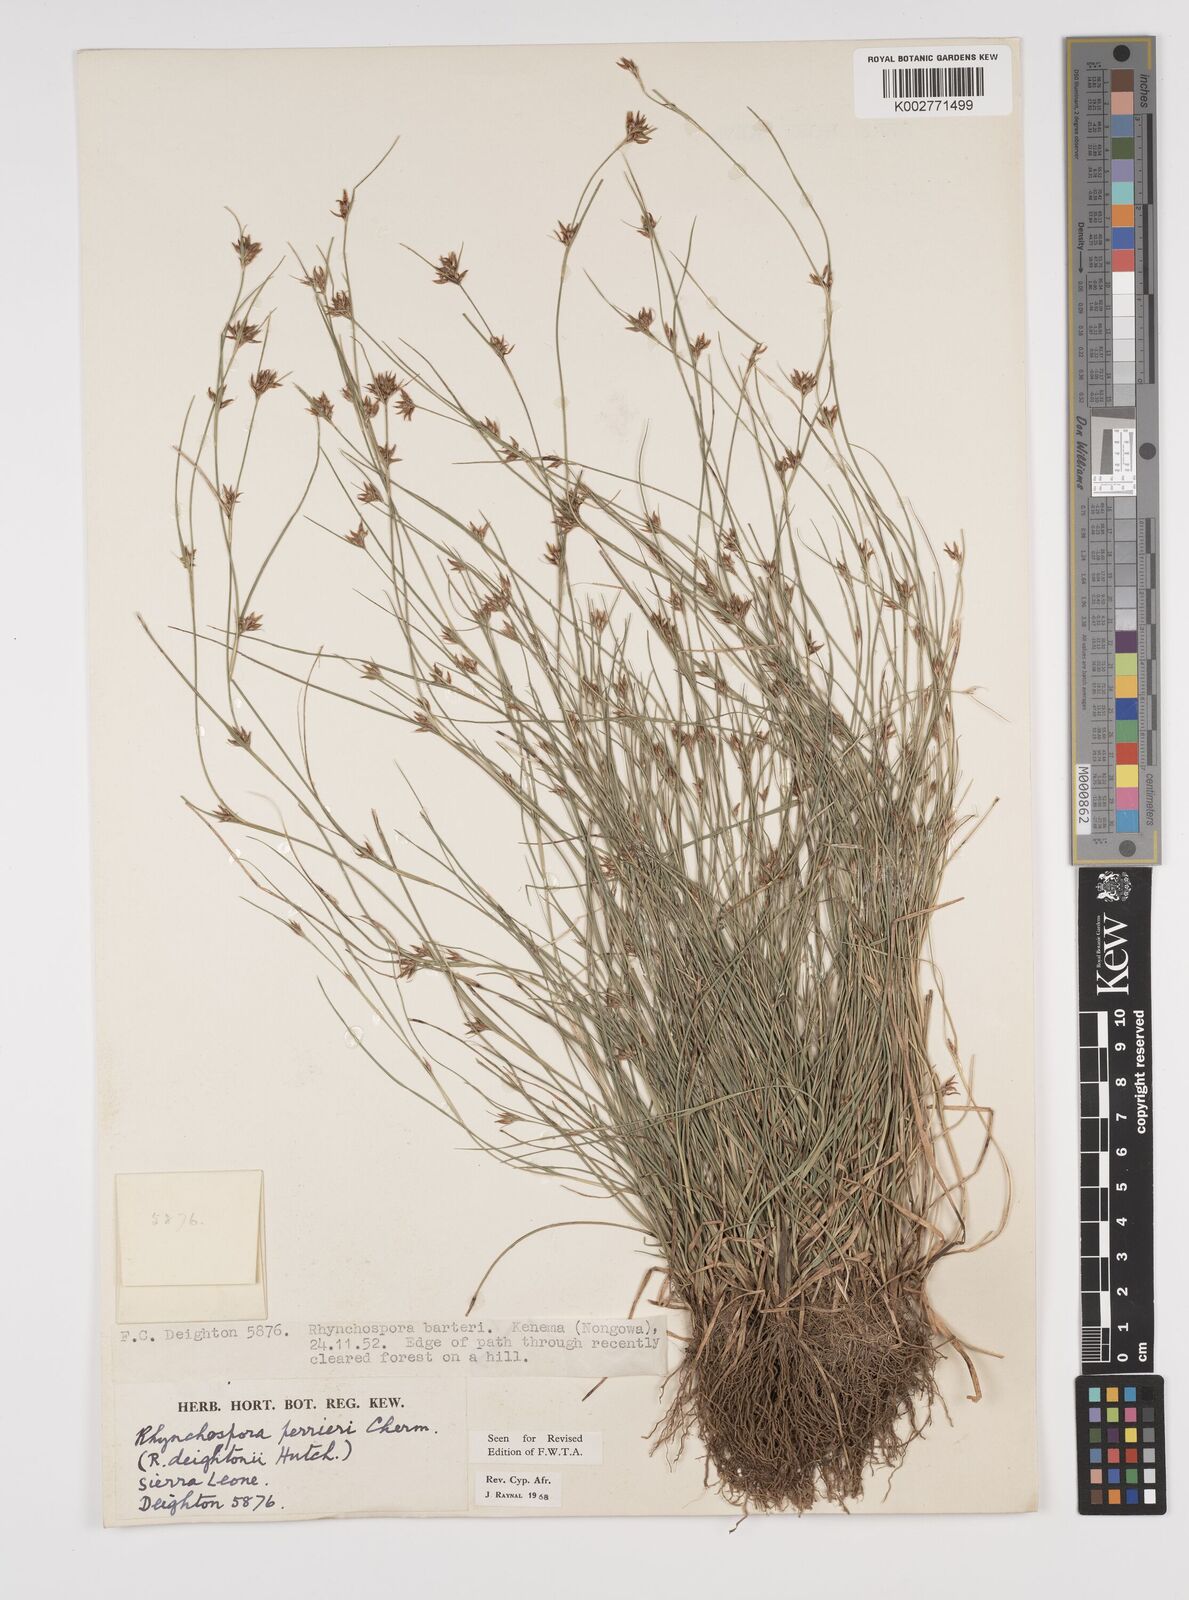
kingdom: Plantae
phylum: Tracheophyta
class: Liliopsida
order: Poales
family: Cyperaceae
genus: Rhynchospora
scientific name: Rhynchospora perrieri
